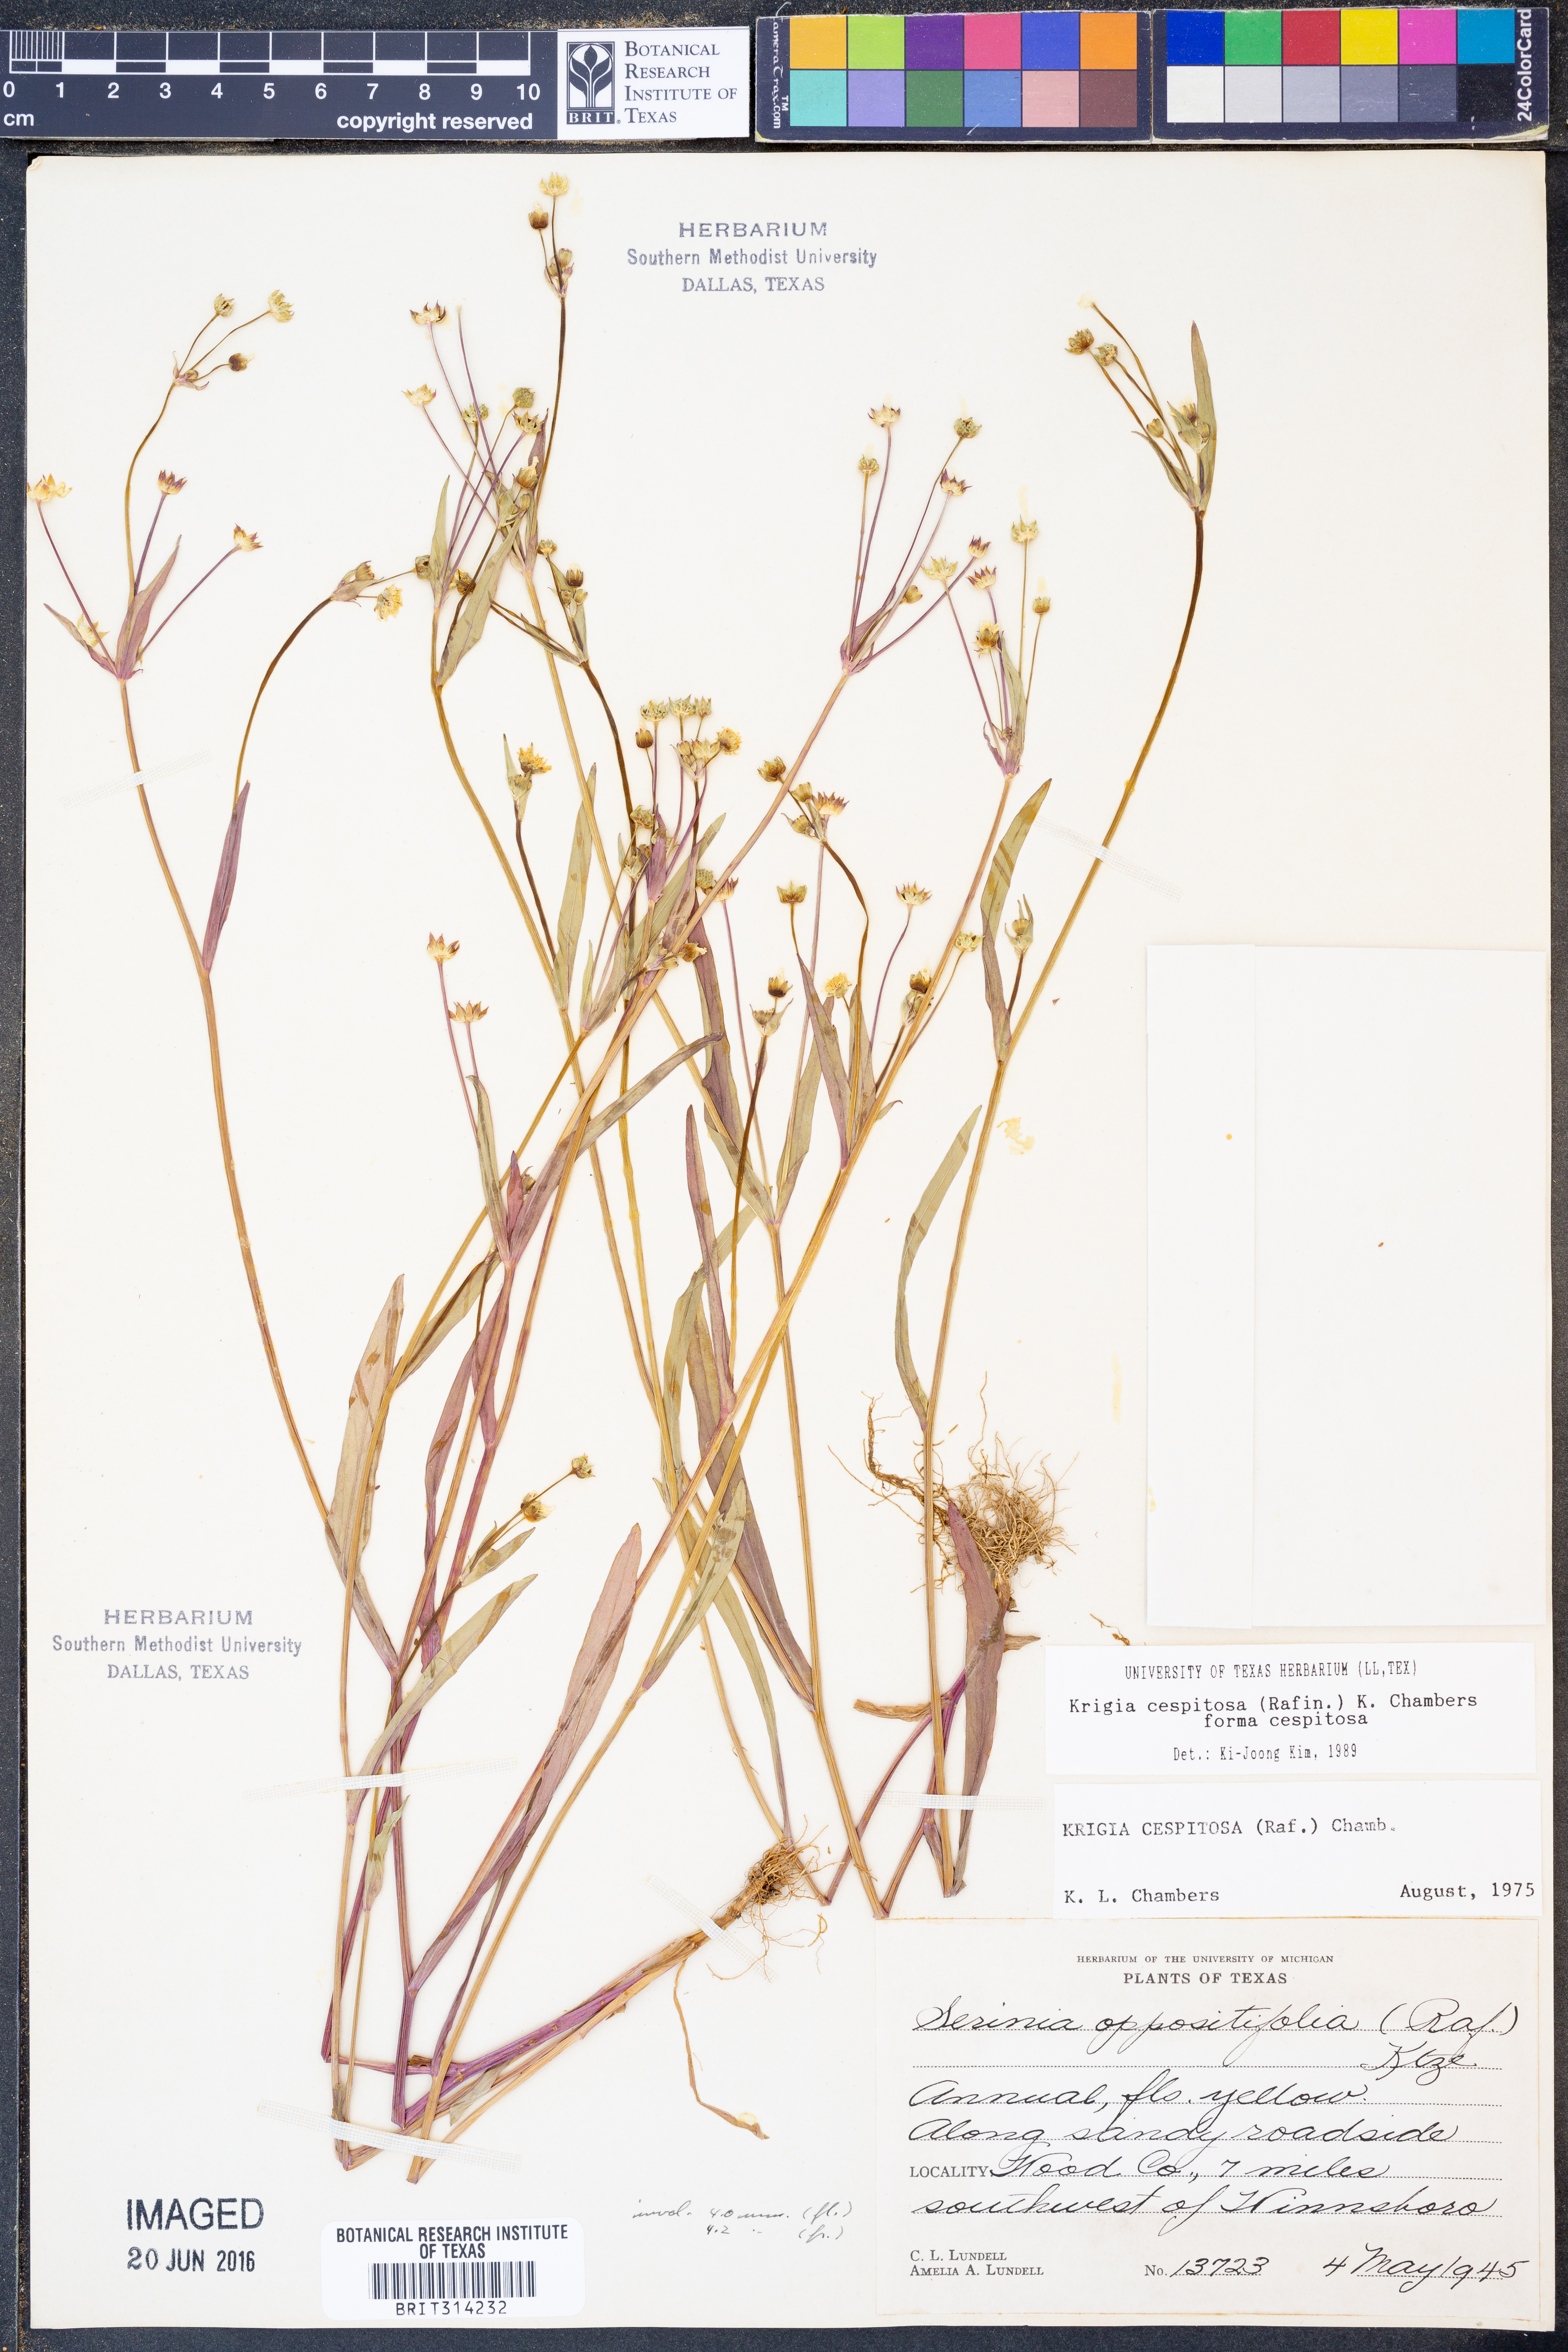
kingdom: Plantae
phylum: Tracheophyta
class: Magnoliopsida
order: Asterales
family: Asteraceae
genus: Krigia
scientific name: Krigia cespitosa
